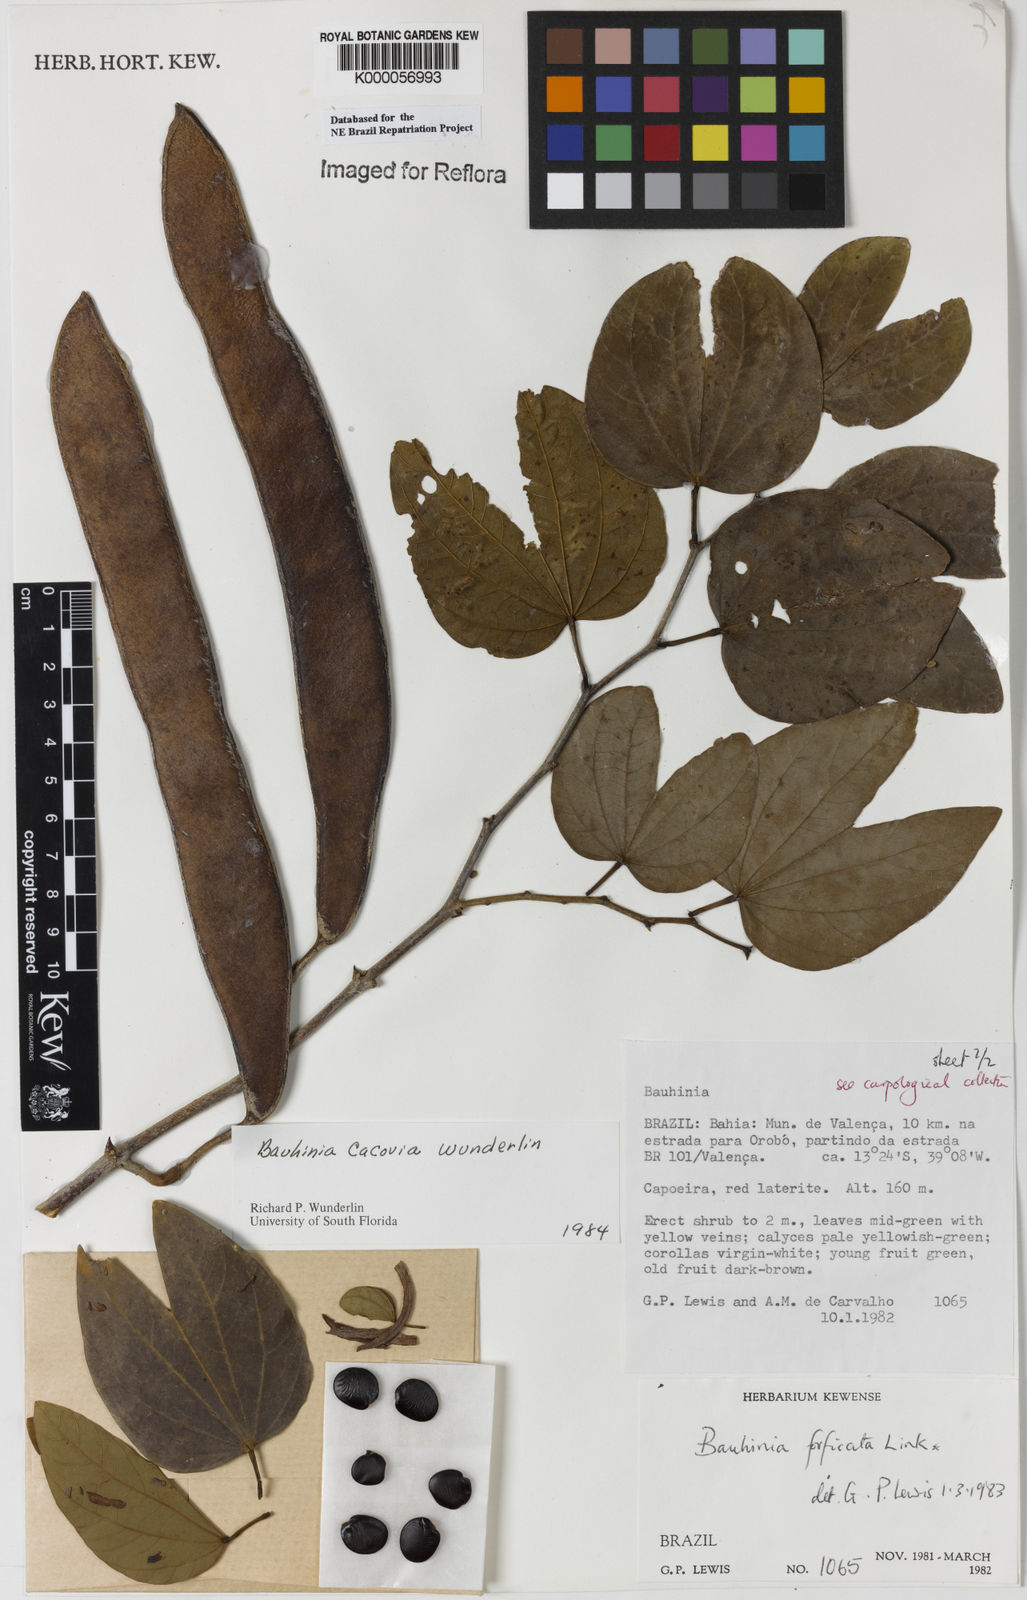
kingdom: Plantae
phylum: Tracheophyta
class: Magnoliopsida
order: Fabales
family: Fabaceae
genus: Bauhinia
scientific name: Bauhinia
